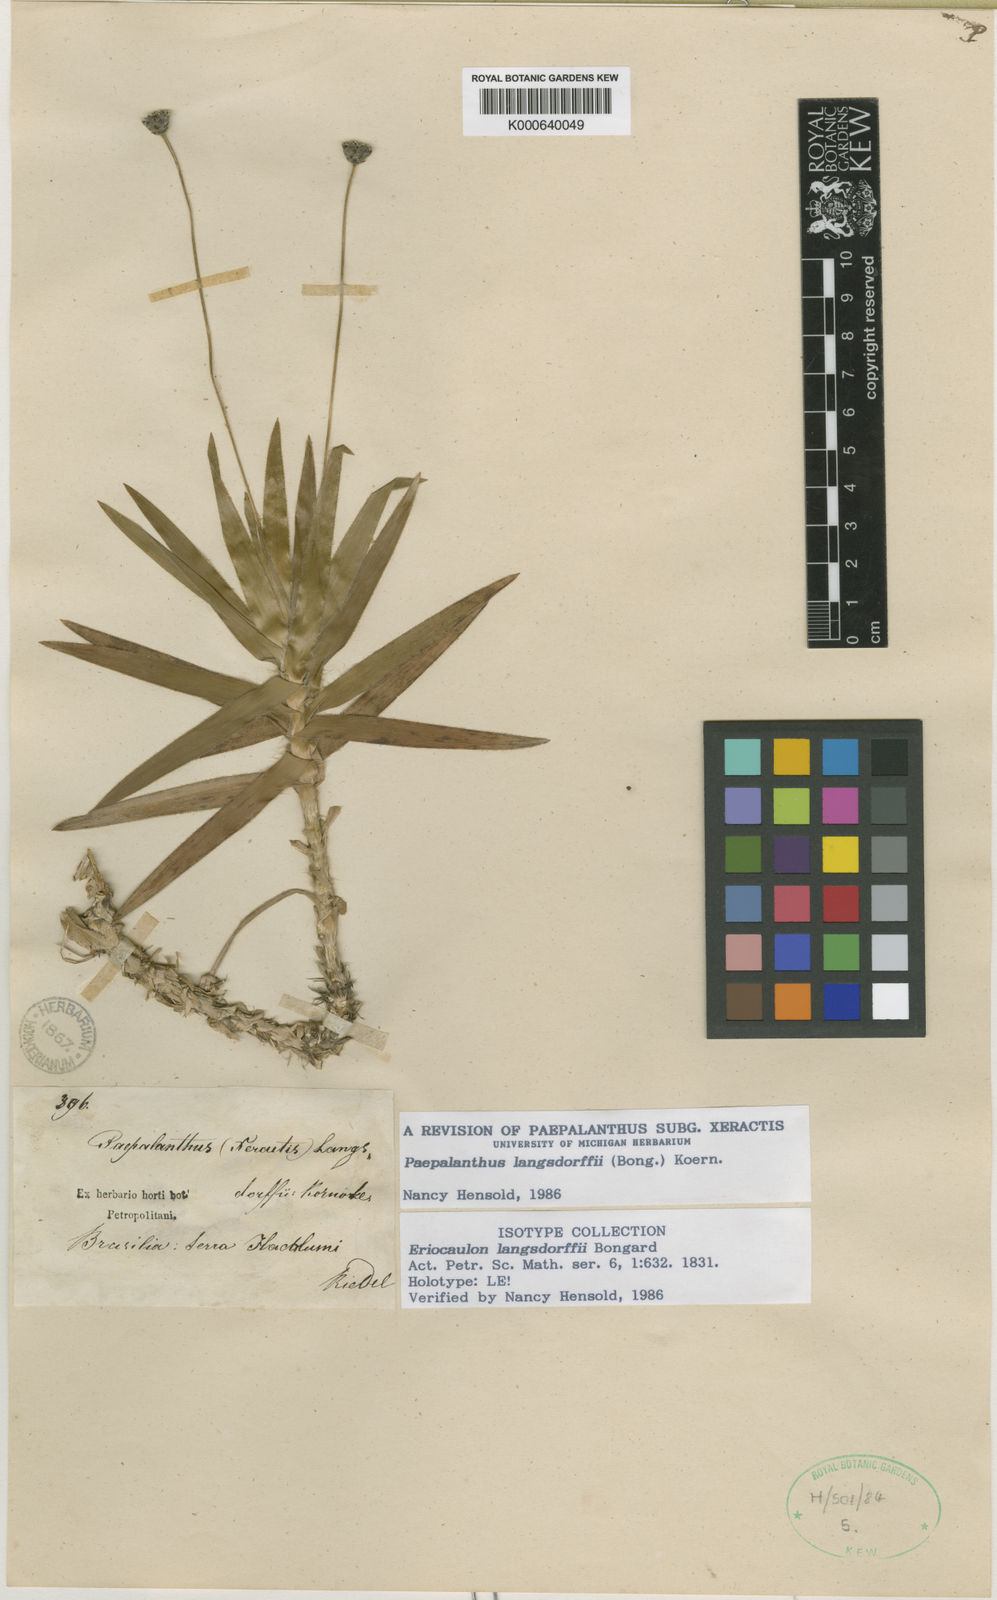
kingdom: Plantae
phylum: Tracheophyta
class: Liliopsida
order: Poales
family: Eriocaulaceae
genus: Paepalanthus
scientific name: Paepalanthus
